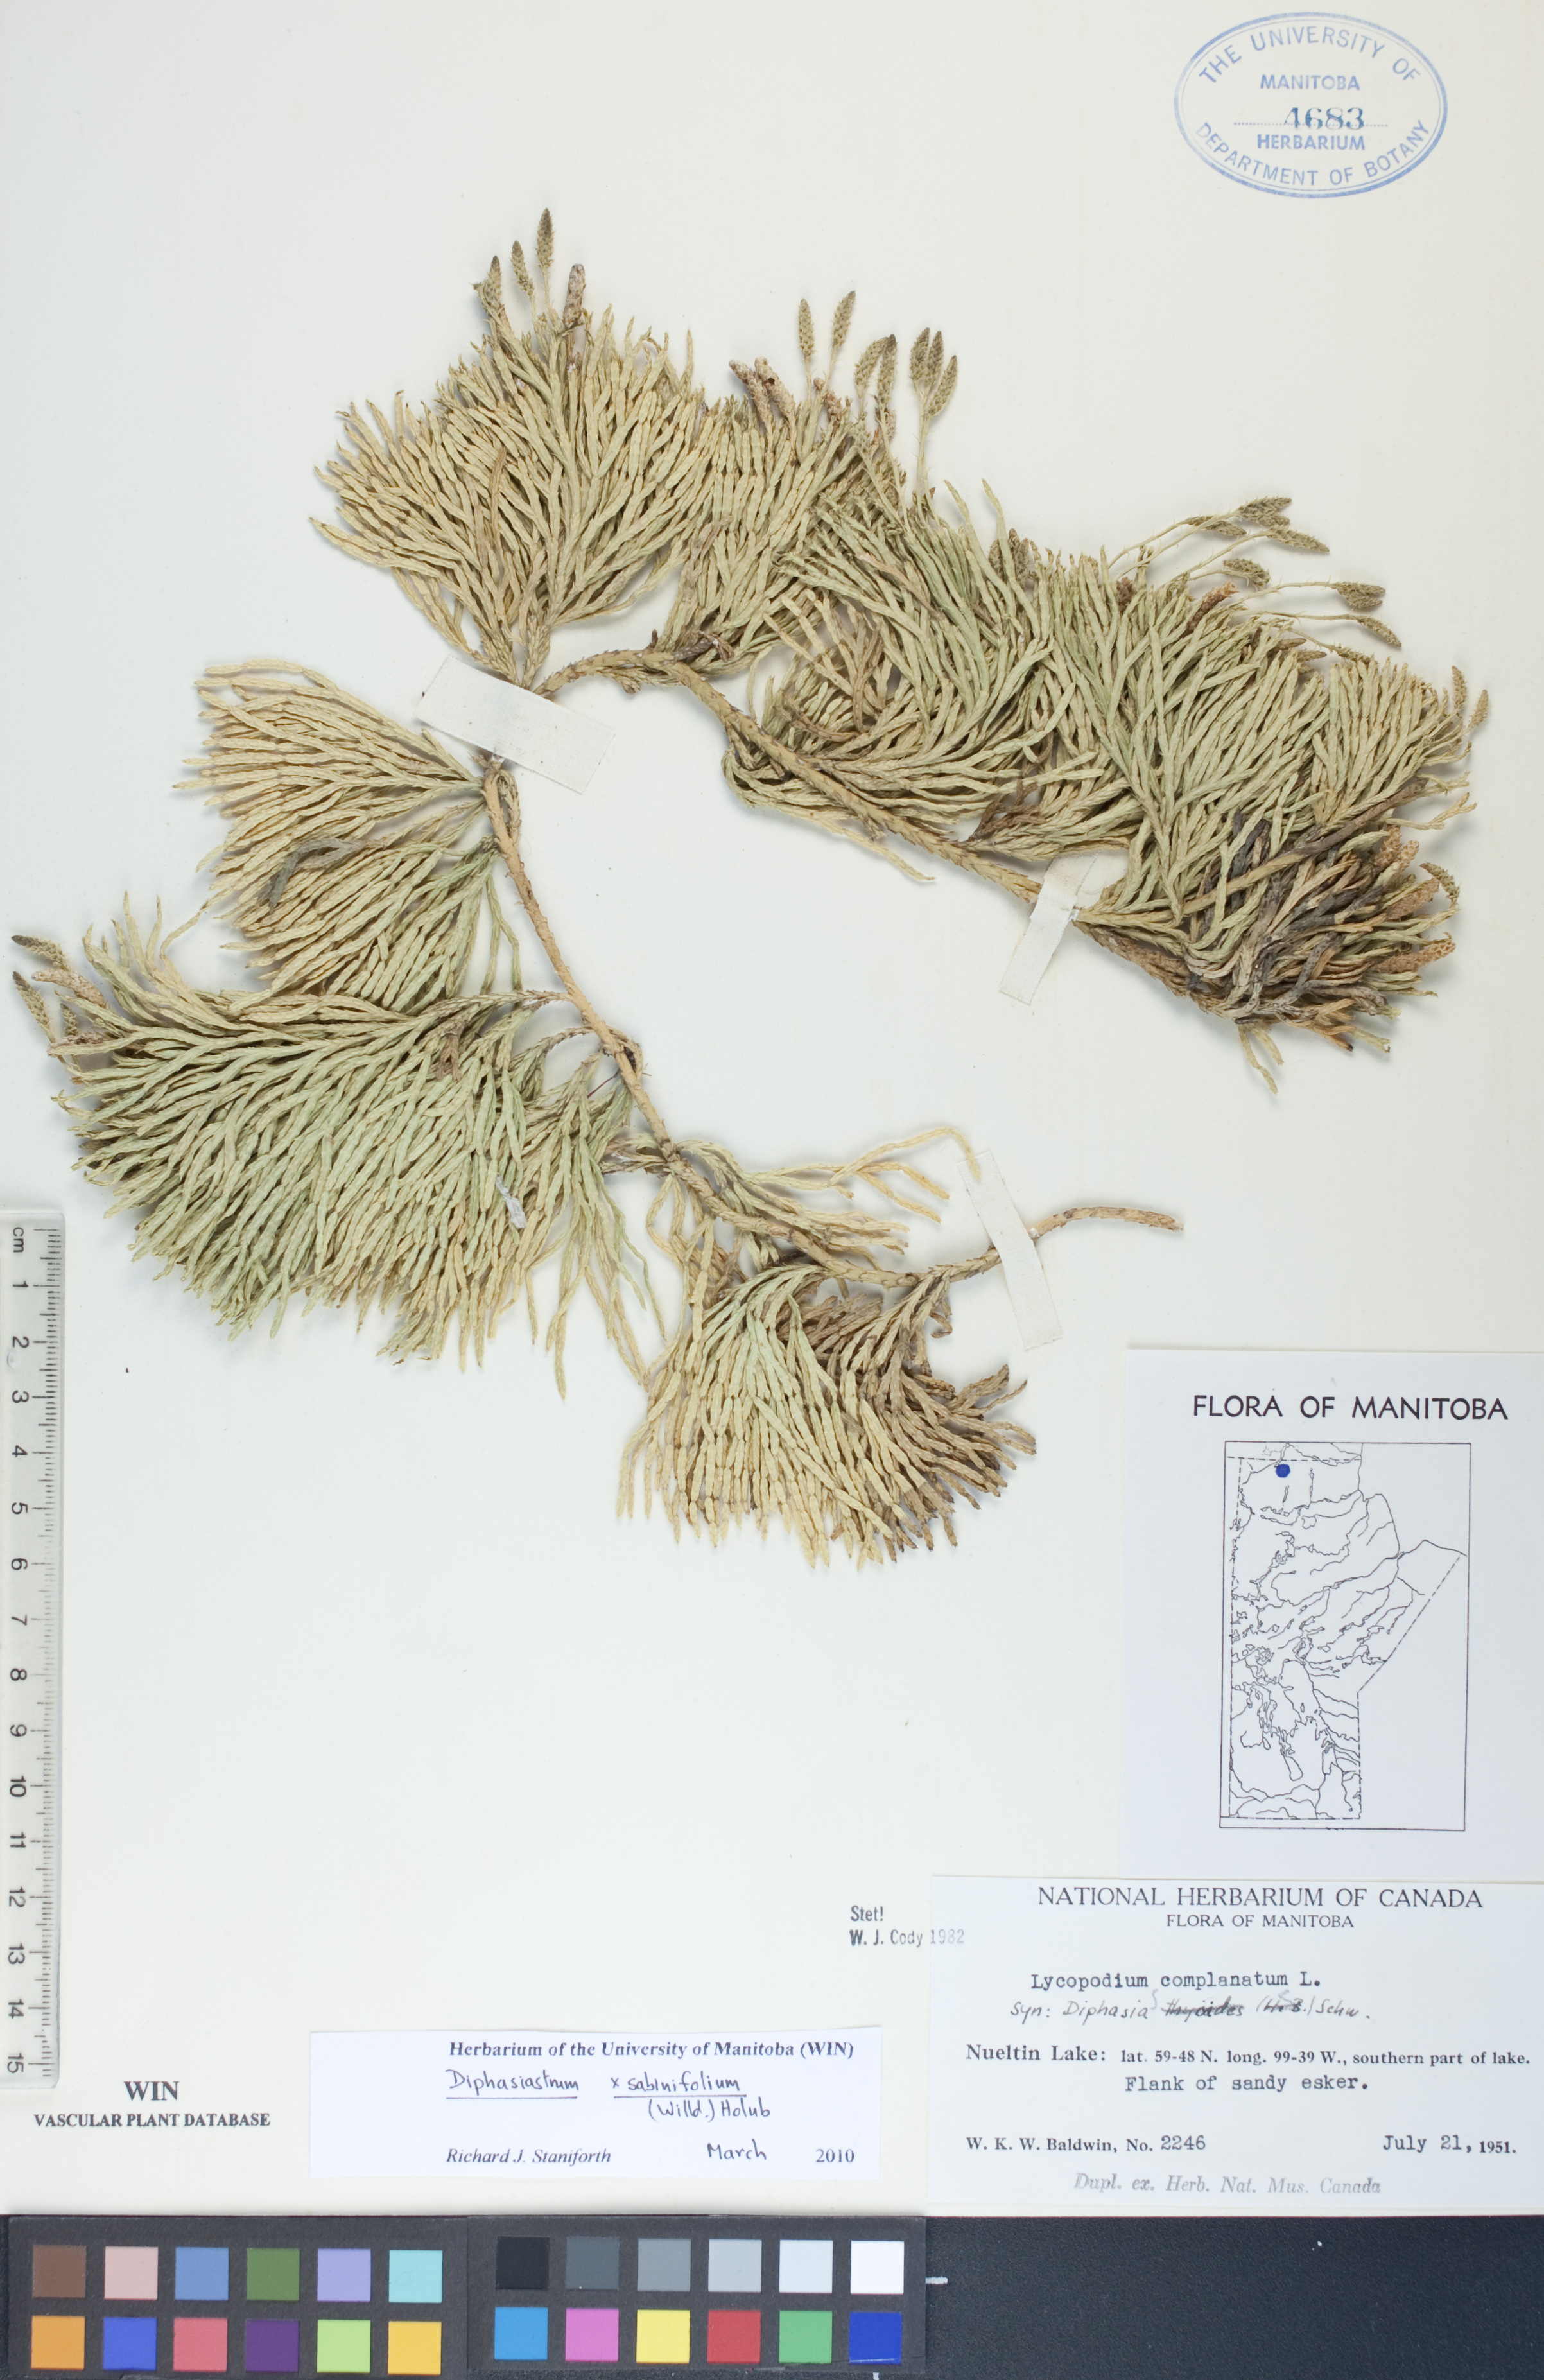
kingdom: Plantae
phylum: Tracheophyta
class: Lycopodiopsida
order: Lycopodiales
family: Lycopodiaceae
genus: Diphasiastrum
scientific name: Diphasiastrum sabinifolium
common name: Juniper clubmoss
